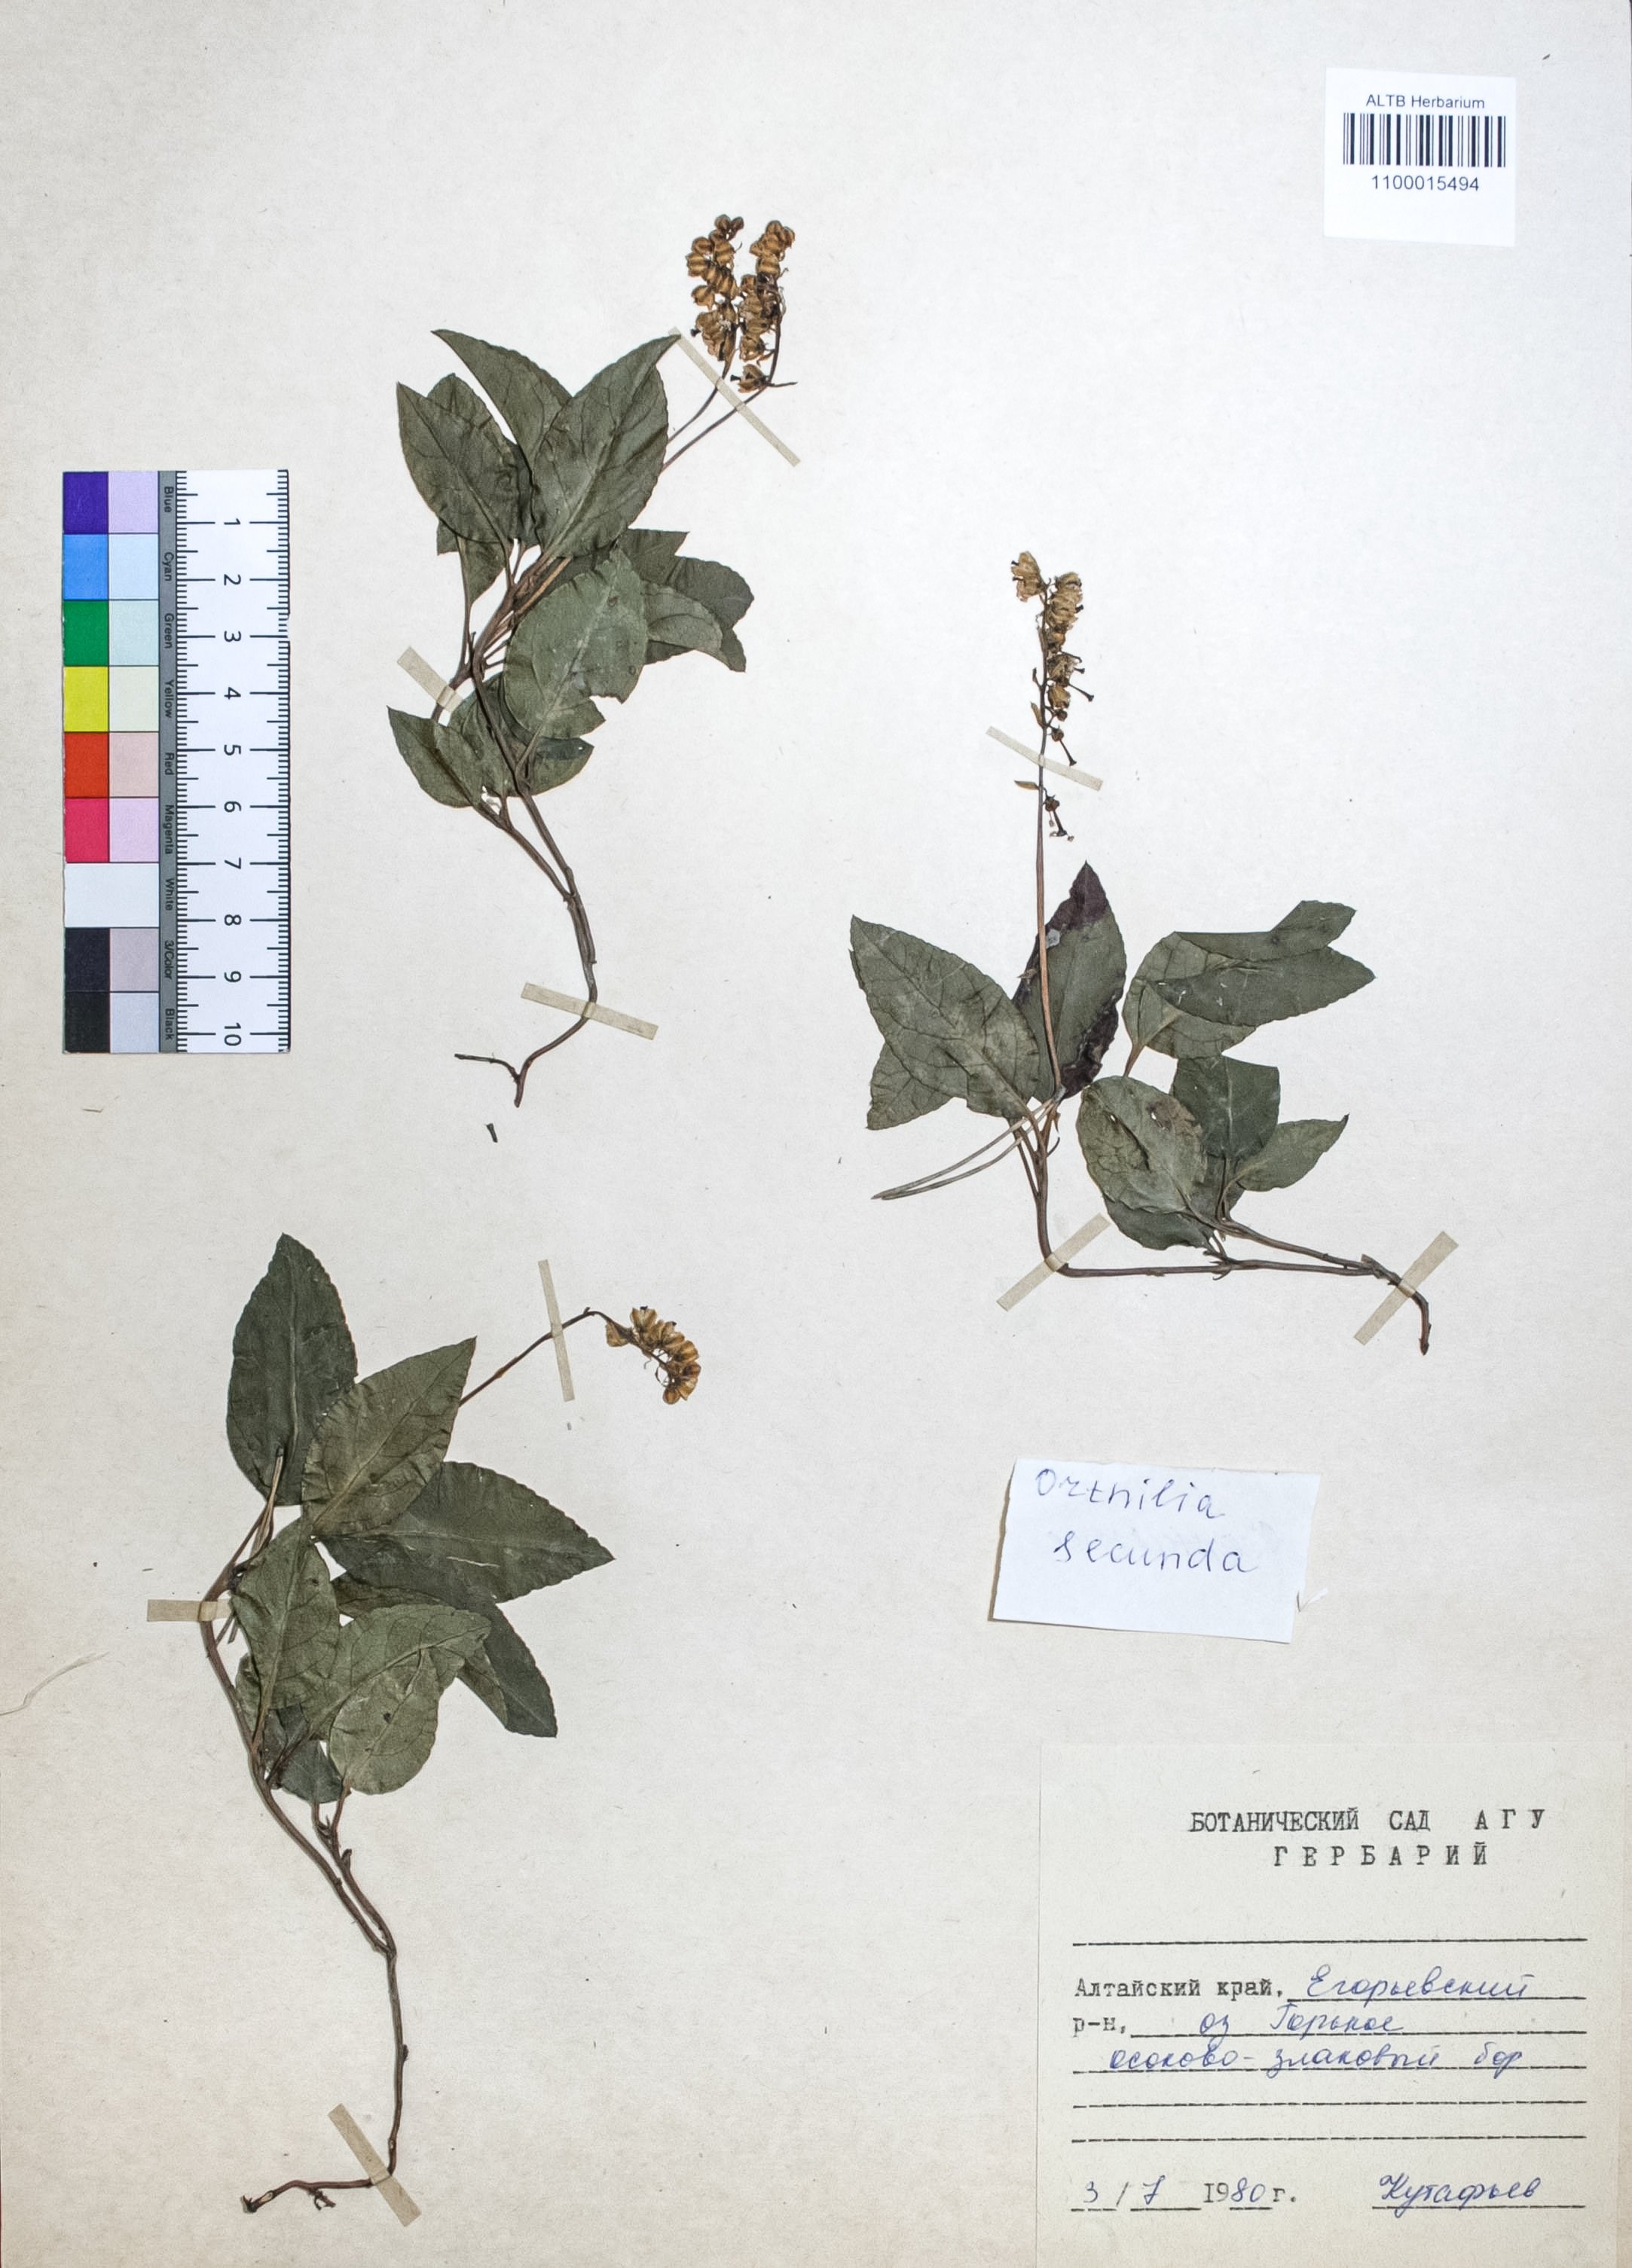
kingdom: Plantae
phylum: Tracheophyta
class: Magnoliopsida
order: Ericales
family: Ericaceae
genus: Orthilia
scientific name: Orthilia secunda
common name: One-sided orthilia
